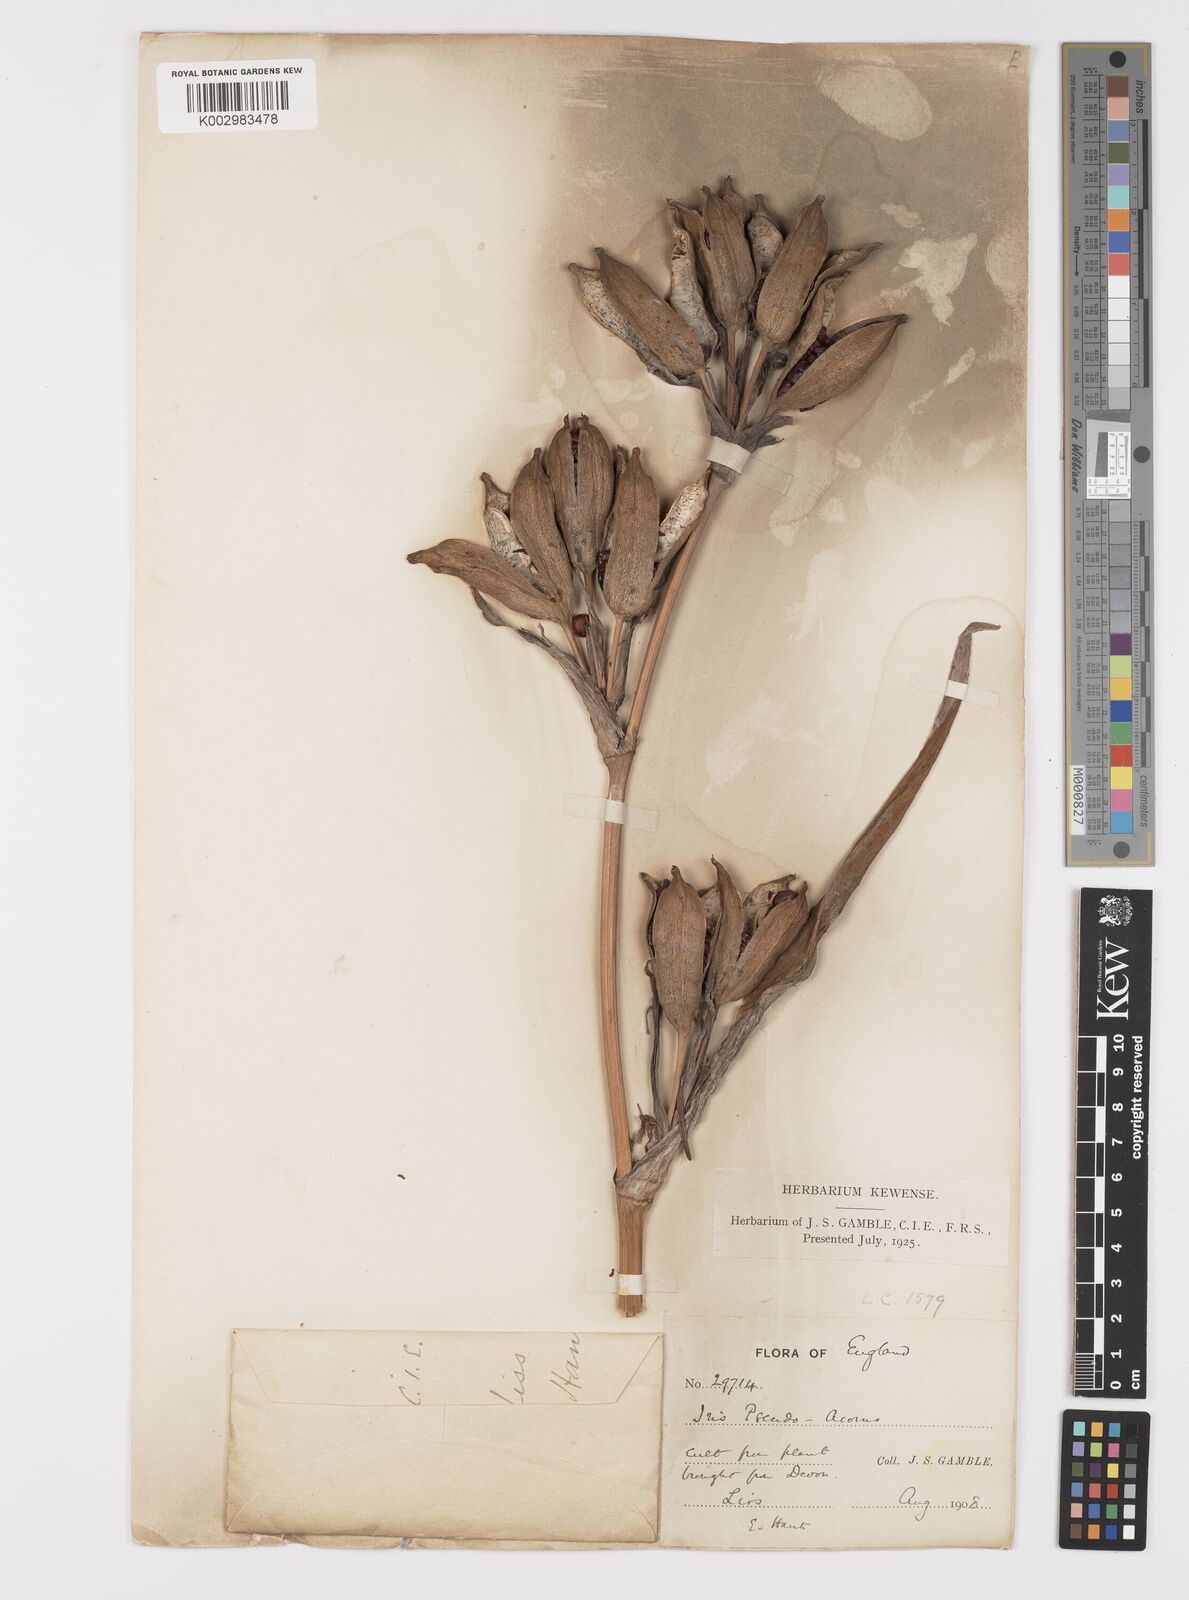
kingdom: Plantae
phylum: Tracheophyta
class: Liliopsida
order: Asparagales
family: Iridaceae
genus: Iris
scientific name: Iris pseudacorus
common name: Yellow flag
